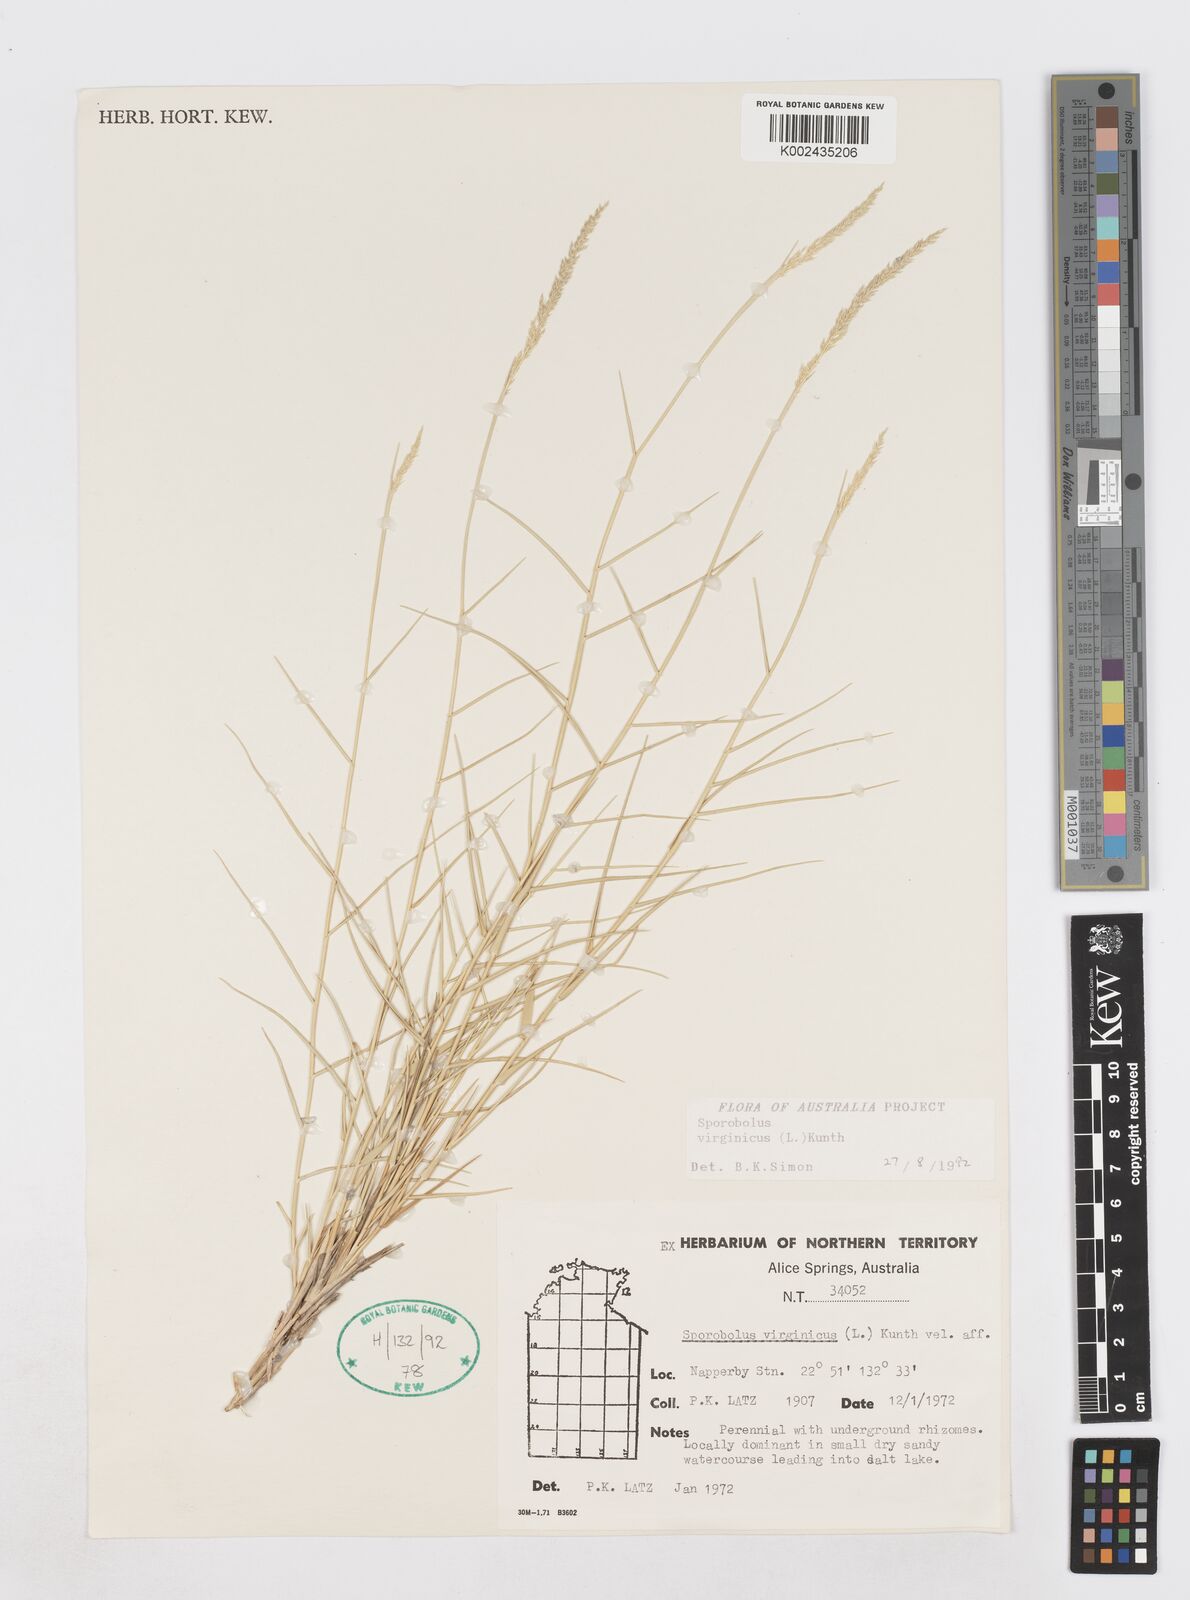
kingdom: Plantae
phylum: Tracheophyta
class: Liliopsida
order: Poales
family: Poaceae
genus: Sporobolus
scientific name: Sporobolus virginicus
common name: Beach dropseed
